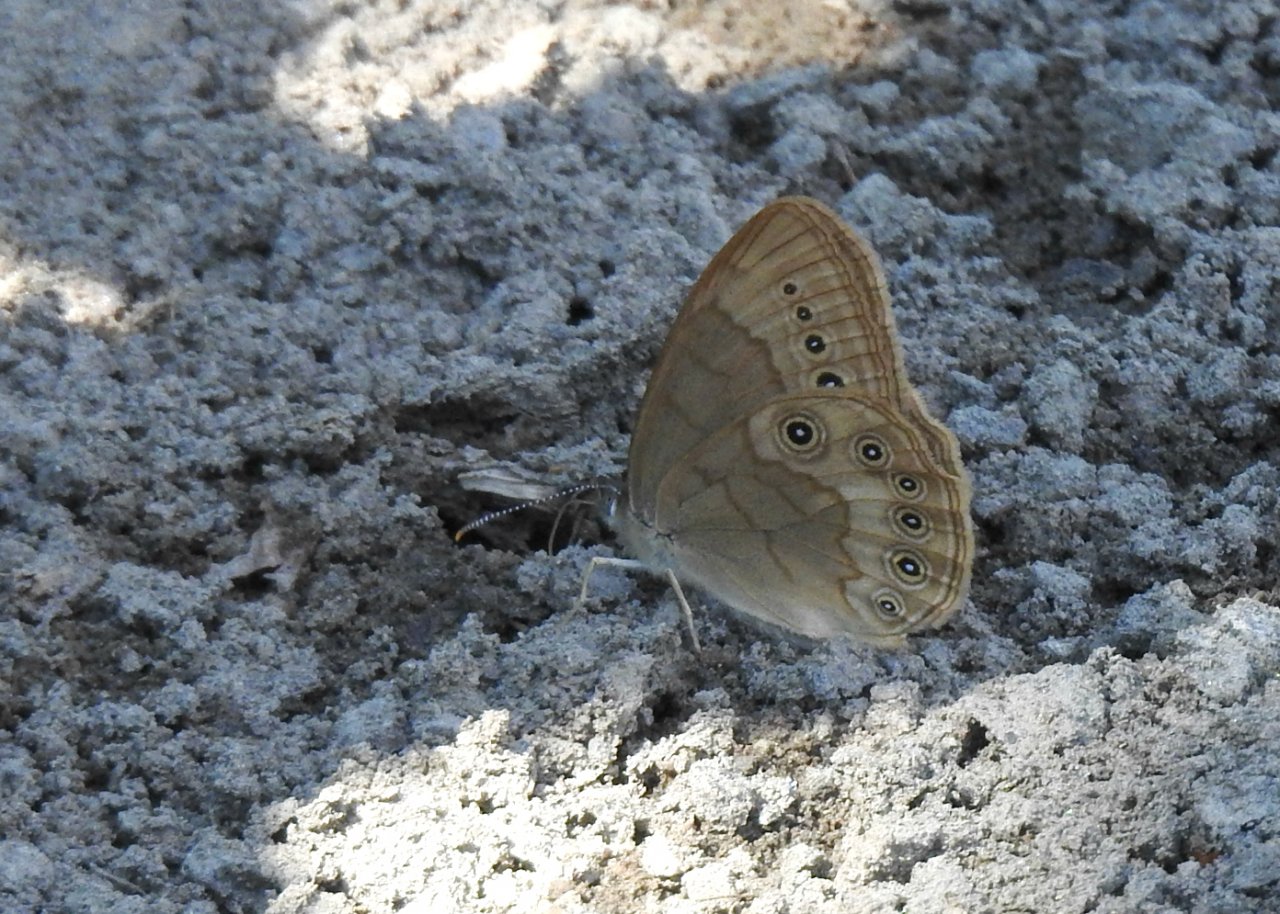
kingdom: Animalia
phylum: Arthropoda
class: Insecta
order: Lepidoptera
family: Nymphalidae
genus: Lethe
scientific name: Lethe eurydice
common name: Eyed Brown
